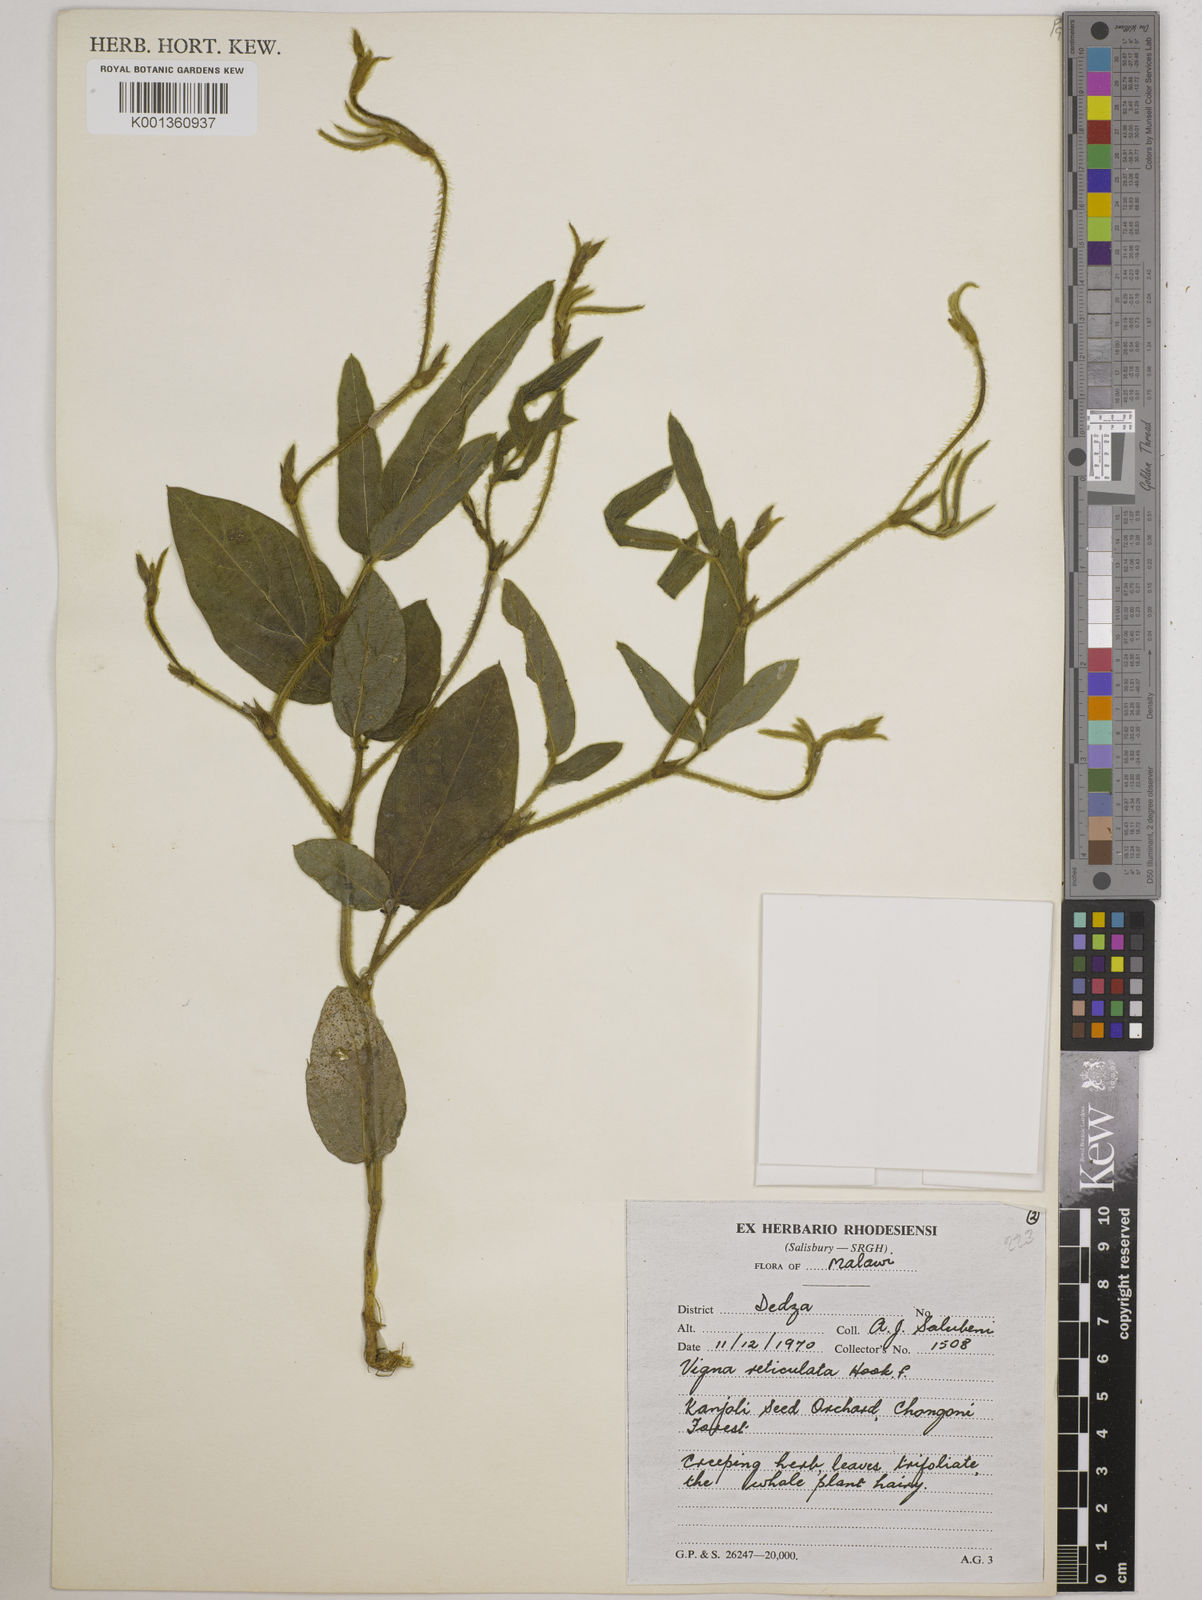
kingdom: Plantae
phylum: Tracheophyta
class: Magnoliopsida
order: Fabales
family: Fabaceae
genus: Vigna
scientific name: Vigna reticulata
